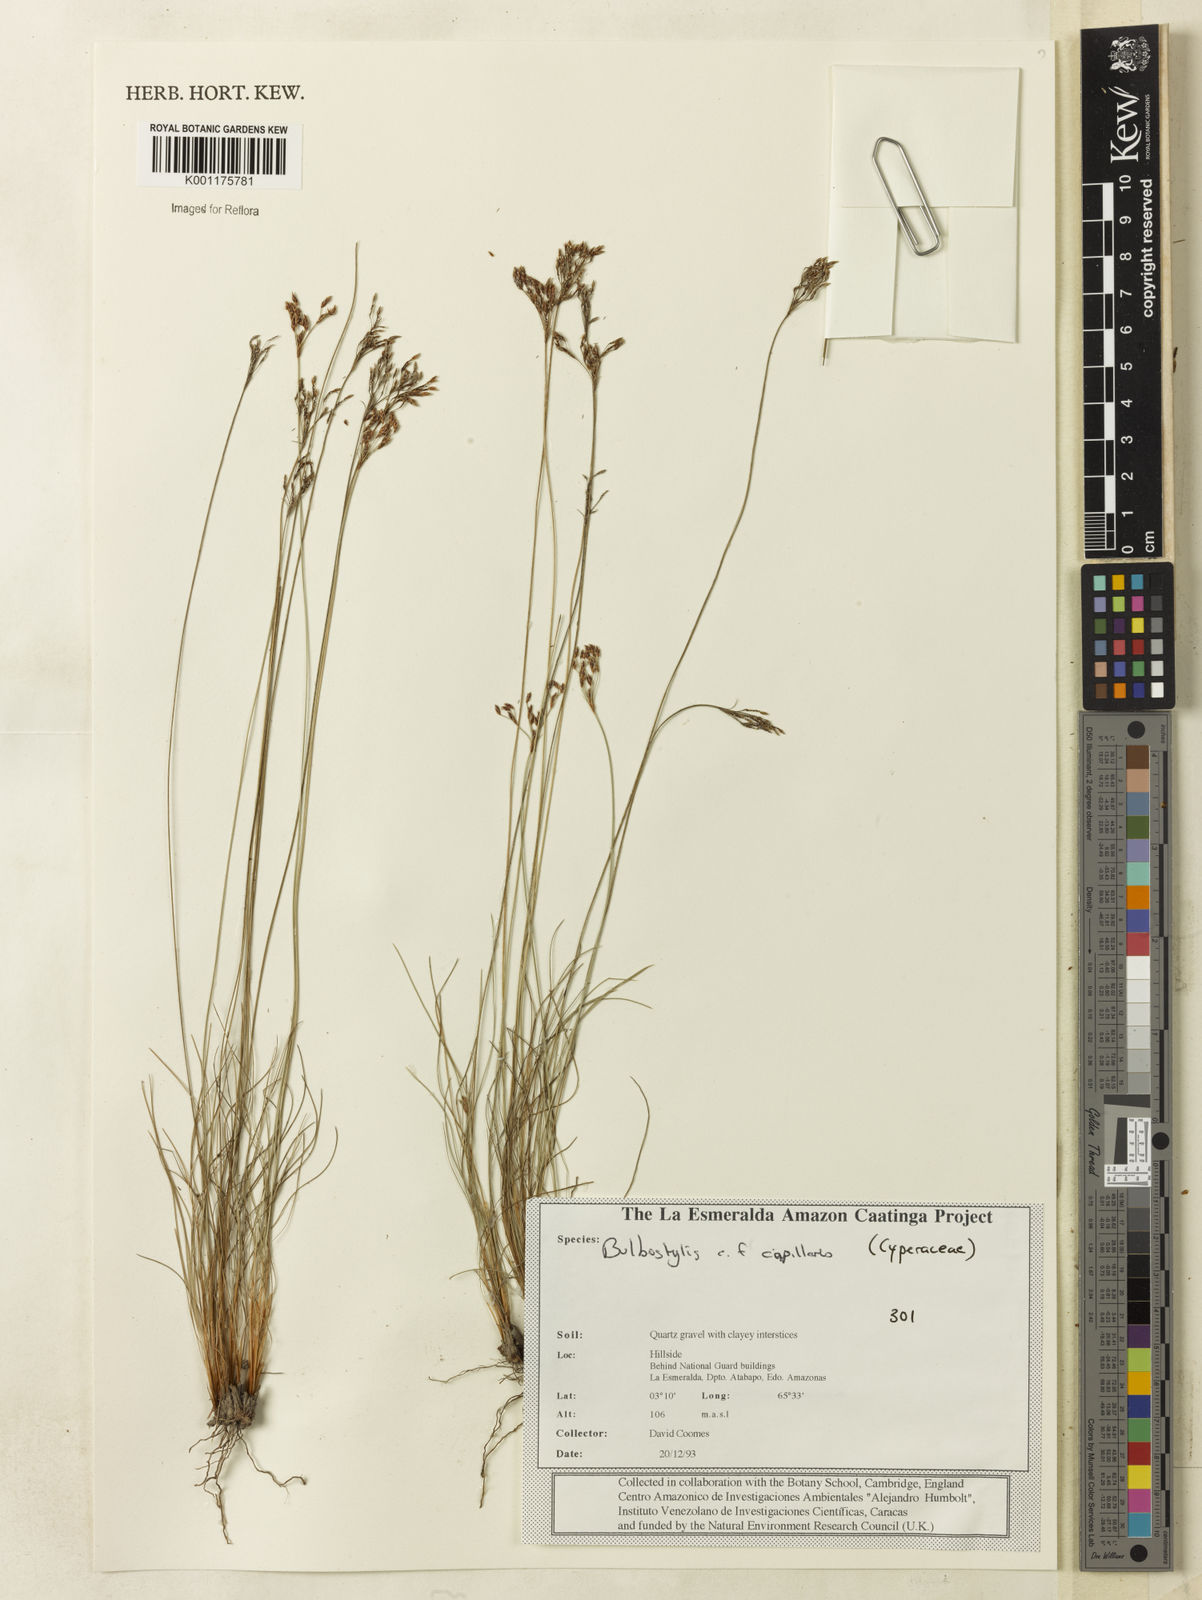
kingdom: Plantae
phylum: Tracheophyta
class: Liliopsida
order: Poales
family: Cyperaceae
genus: Bulbostylis
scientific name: Bulbostylis capillaris
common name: Densetuft hairsedge
